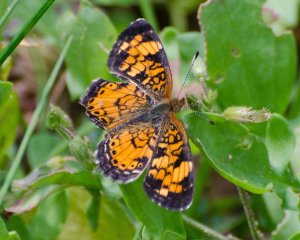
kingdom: Animalia
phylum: Arthropoda
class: Insecta
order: Lepidoptera
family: Nymphalidae
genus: Phyciodes
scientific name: Phyciodes
